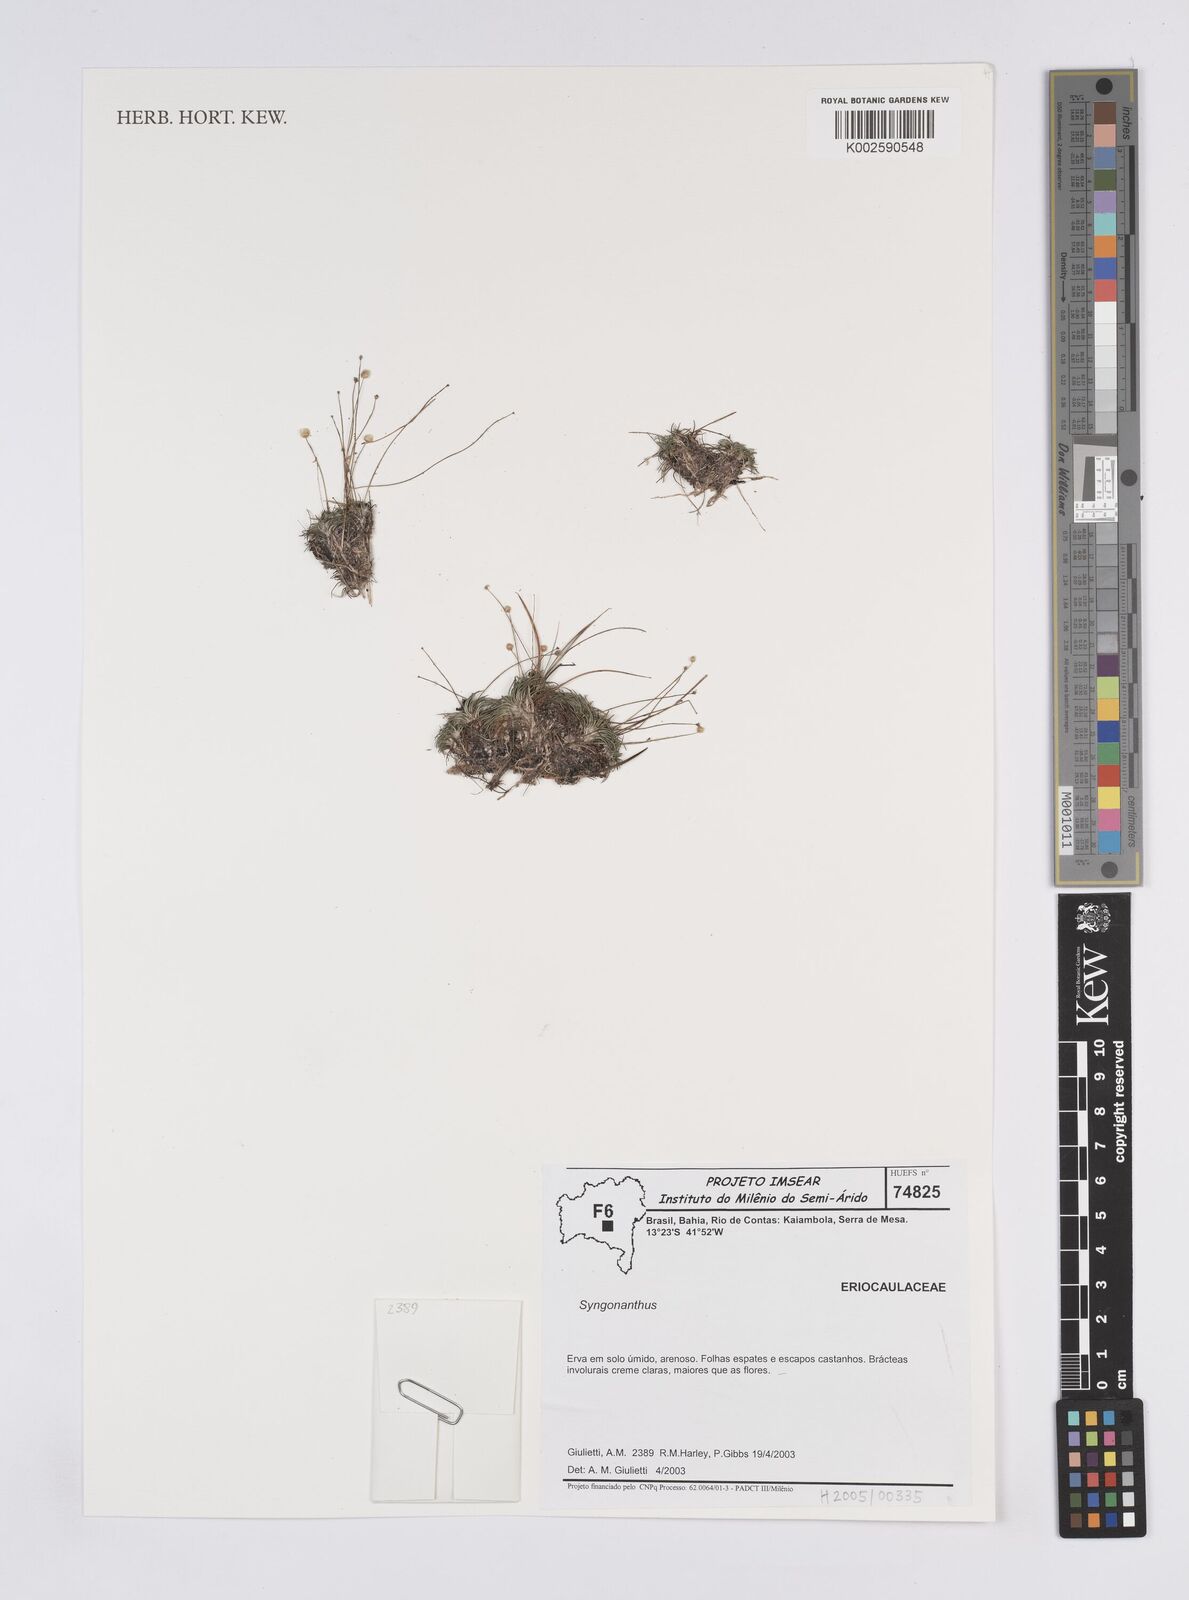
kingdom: Plantae
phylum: Tracheophyta
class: Liliopsida
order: Poales
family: Eriocaulaceae
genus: Syngonanthus
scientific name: Syngonanthus
